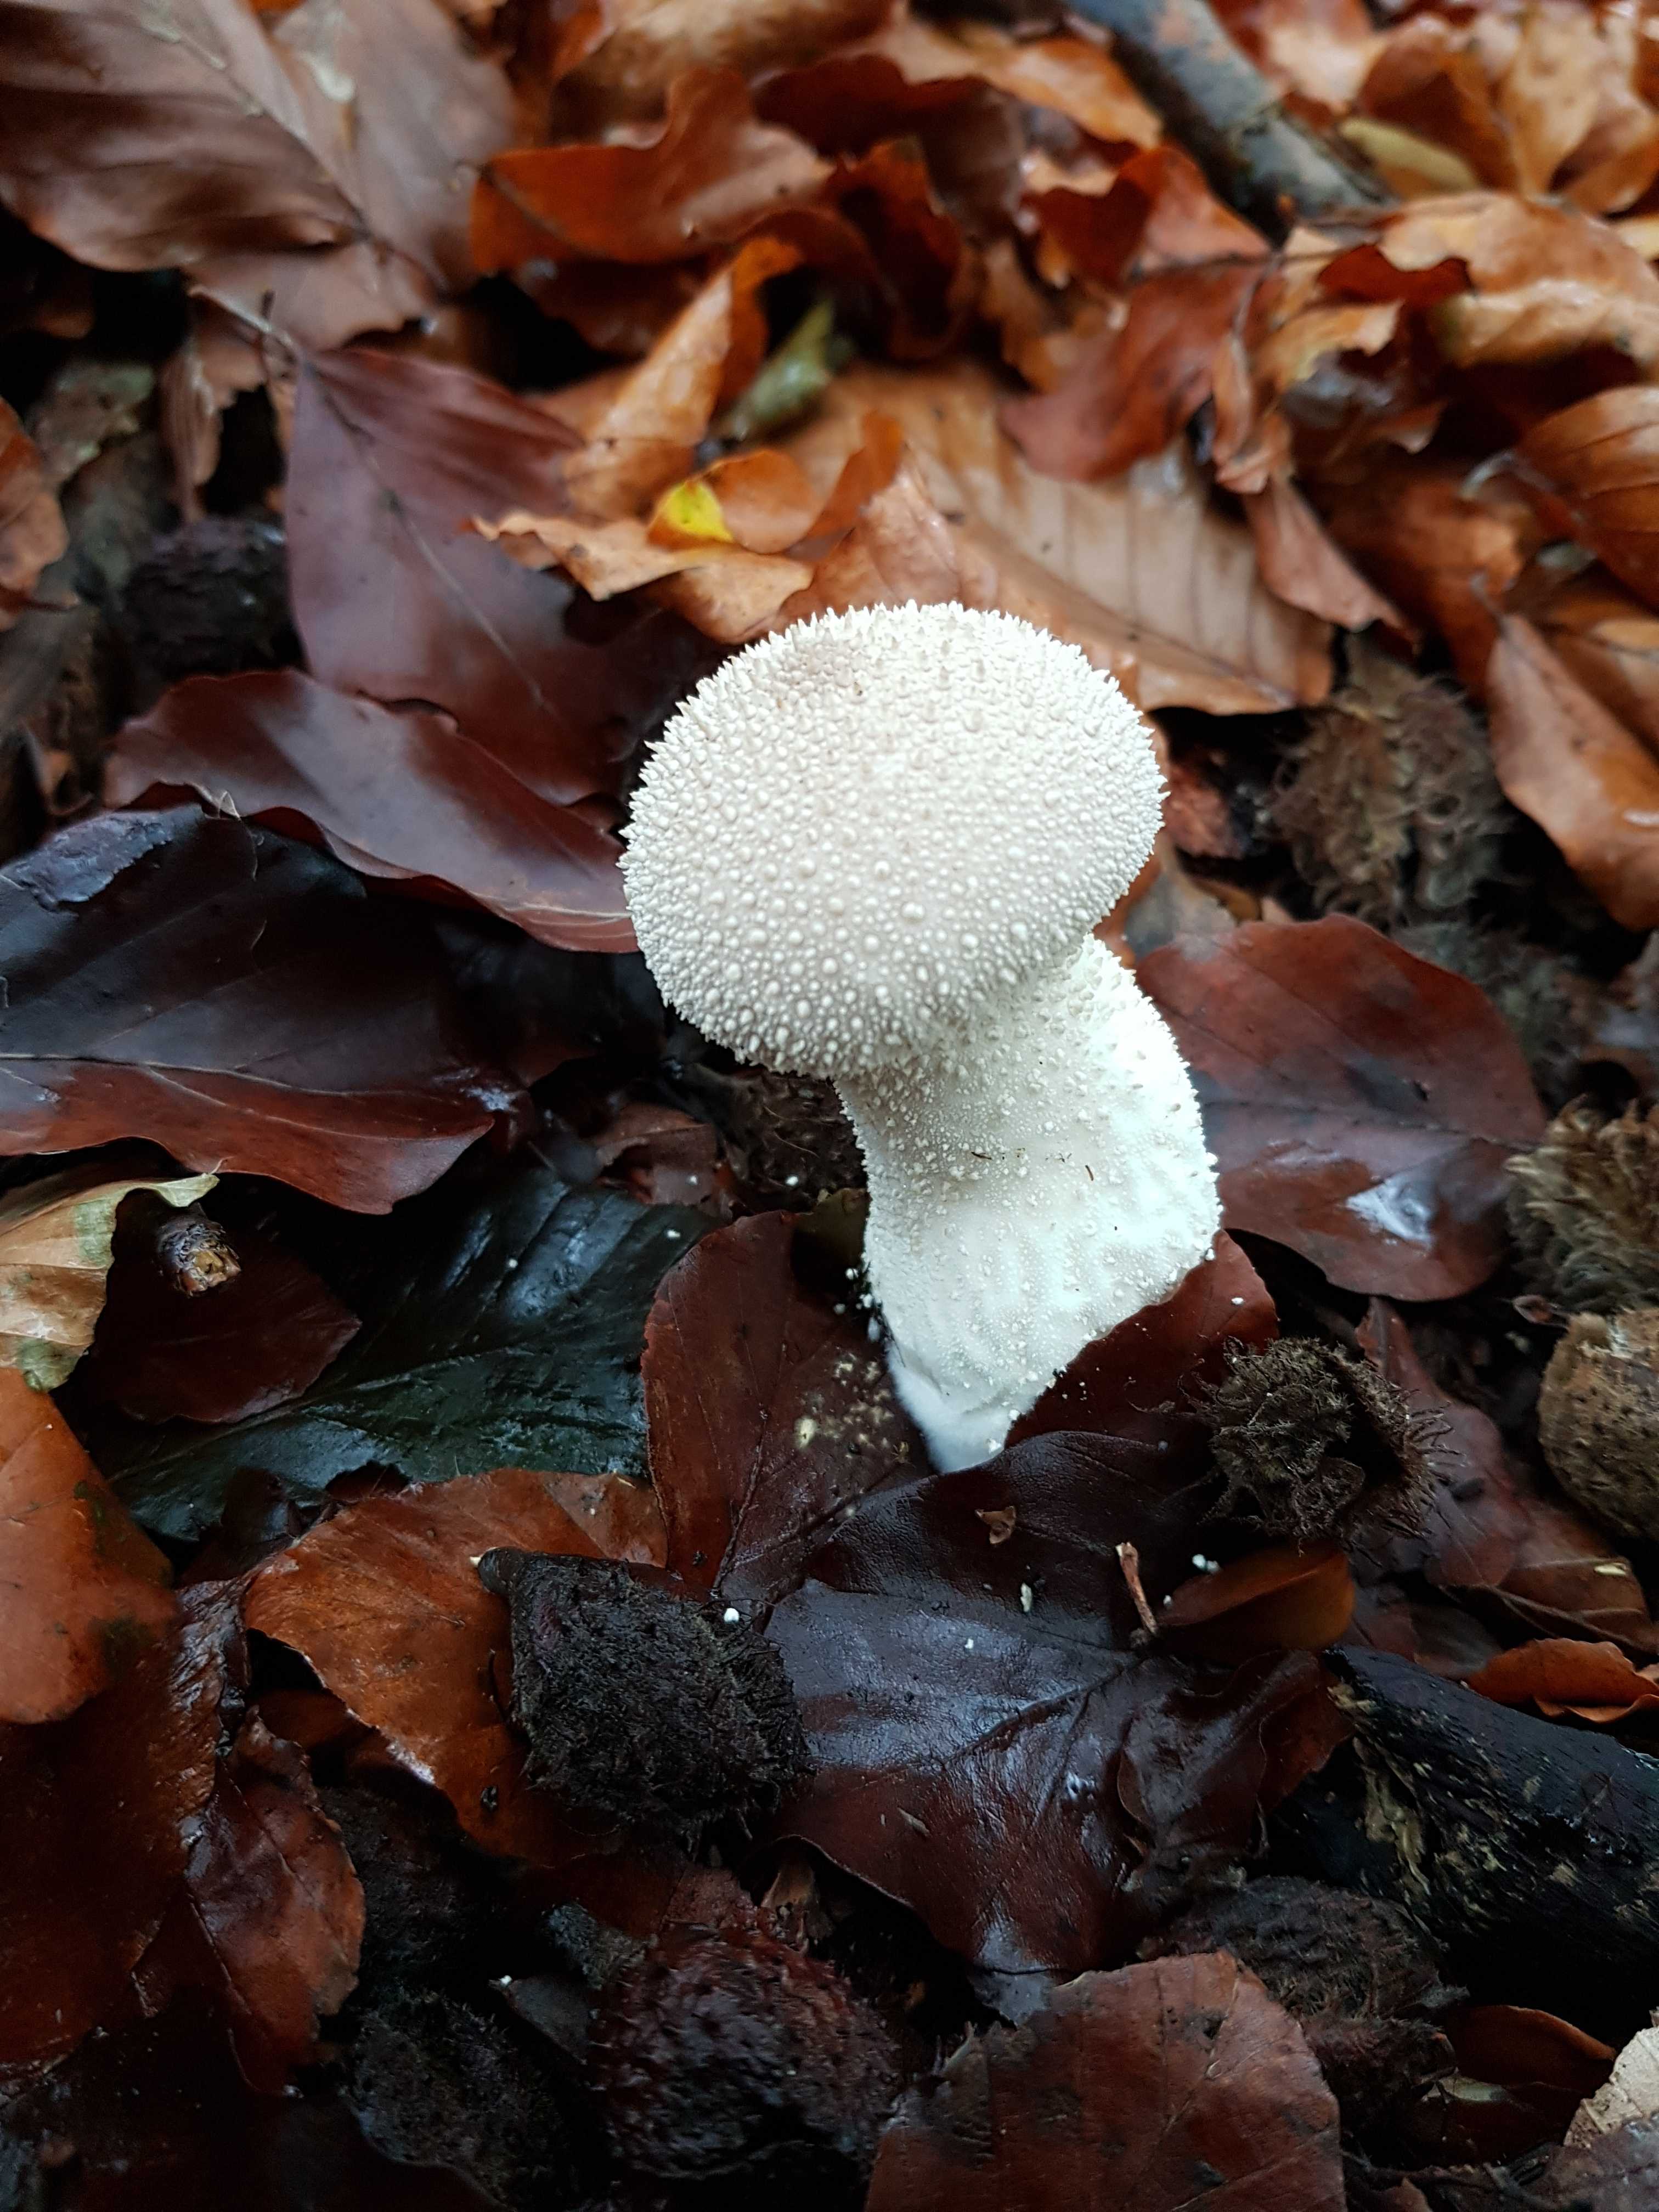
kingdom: Fungi
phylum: Basidiomycota
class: Agaricomycetes
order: Agaricales
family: Lycoperdaceae
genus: Lycoperdon
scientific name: Lycoperdon perlatum
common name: krystal-støvbold
